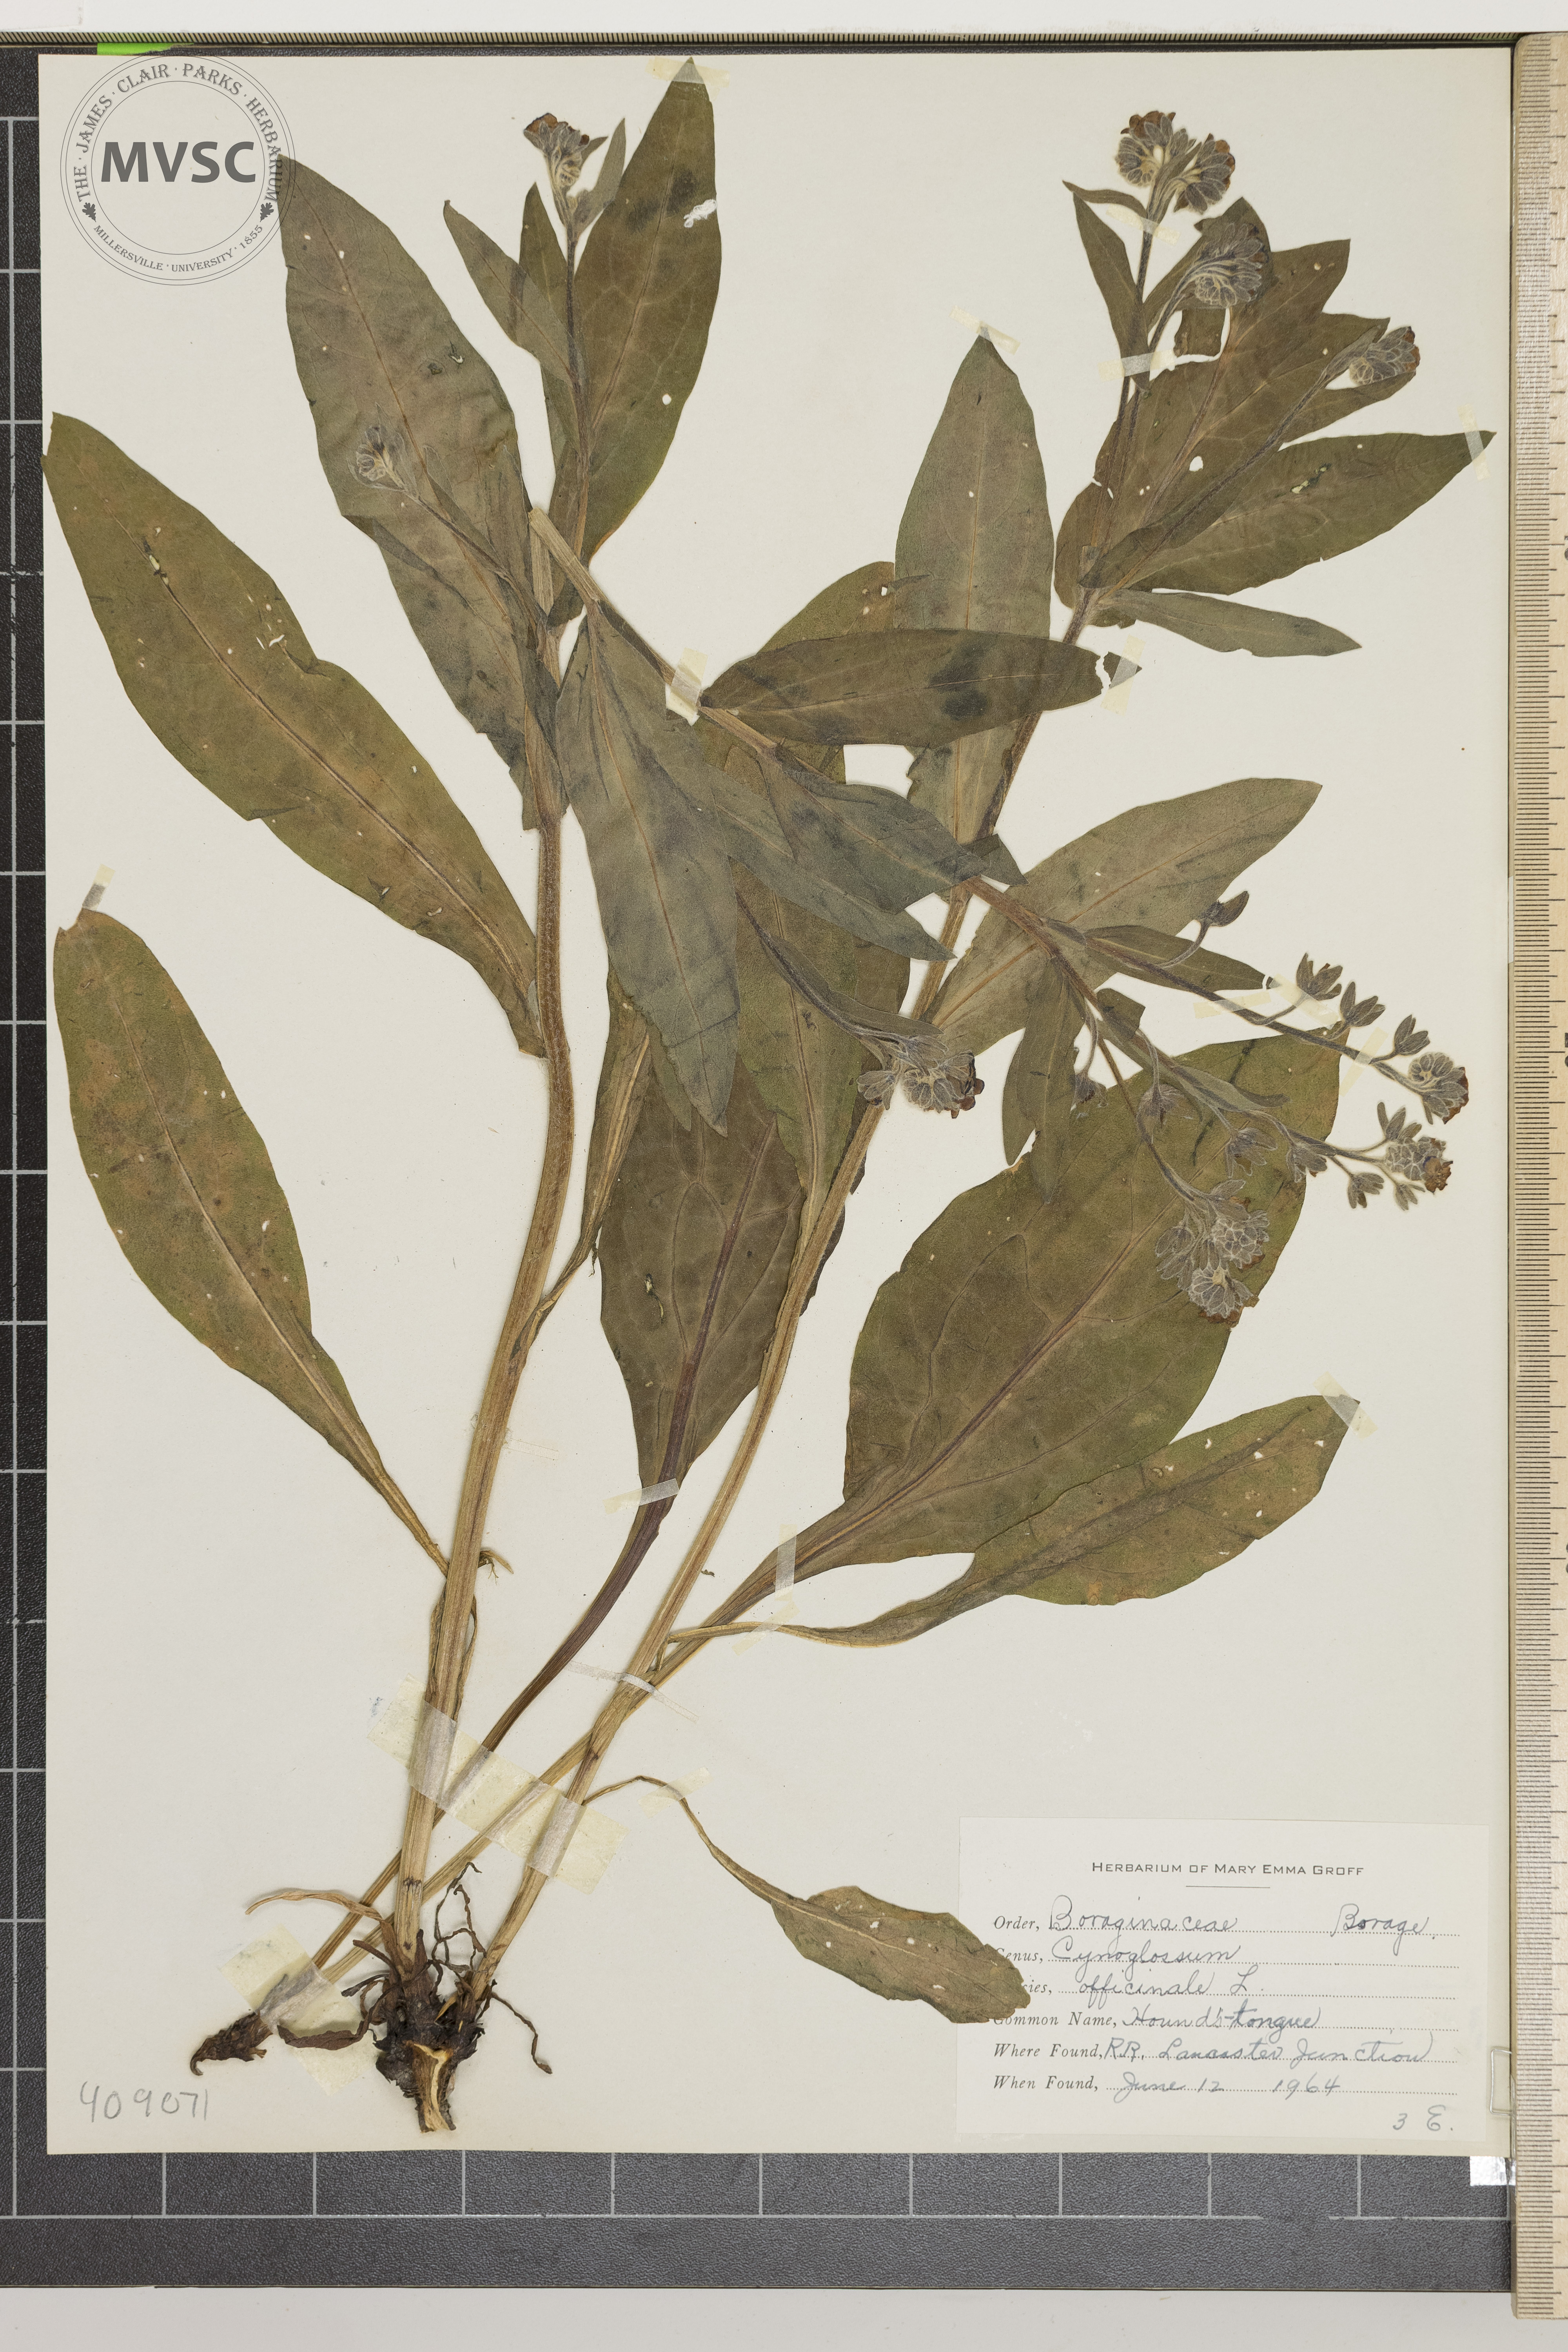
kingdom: Plantae
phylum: Tracheophyta
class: Magnoliopsida
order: Boraginales
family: Boraginaceae
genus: Cynoglossum
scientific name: Cynoglossum officinale
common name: Hound's-tongue
